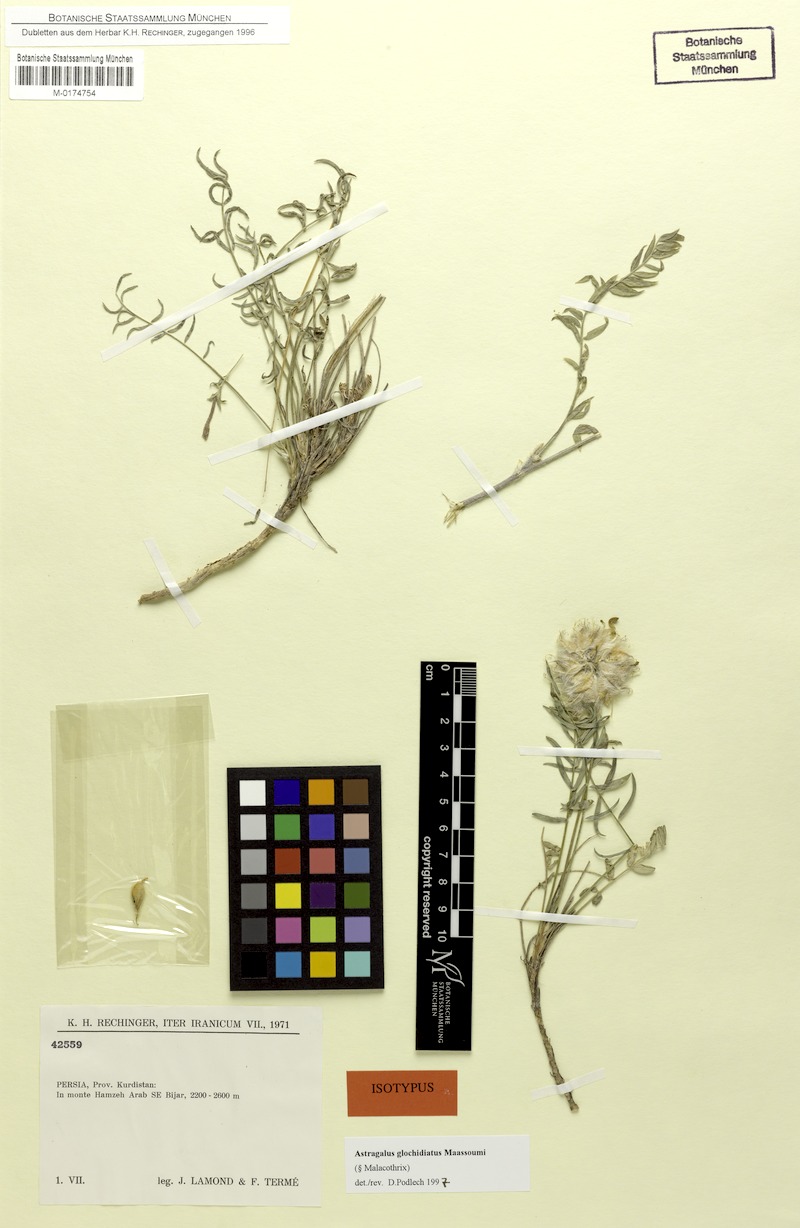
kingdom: Plantae
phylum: Tracheophyta
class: Magnoliopsida
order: Fabales
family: Fabaceae
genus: Astragalus
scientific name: Astragalus glochidiatus
